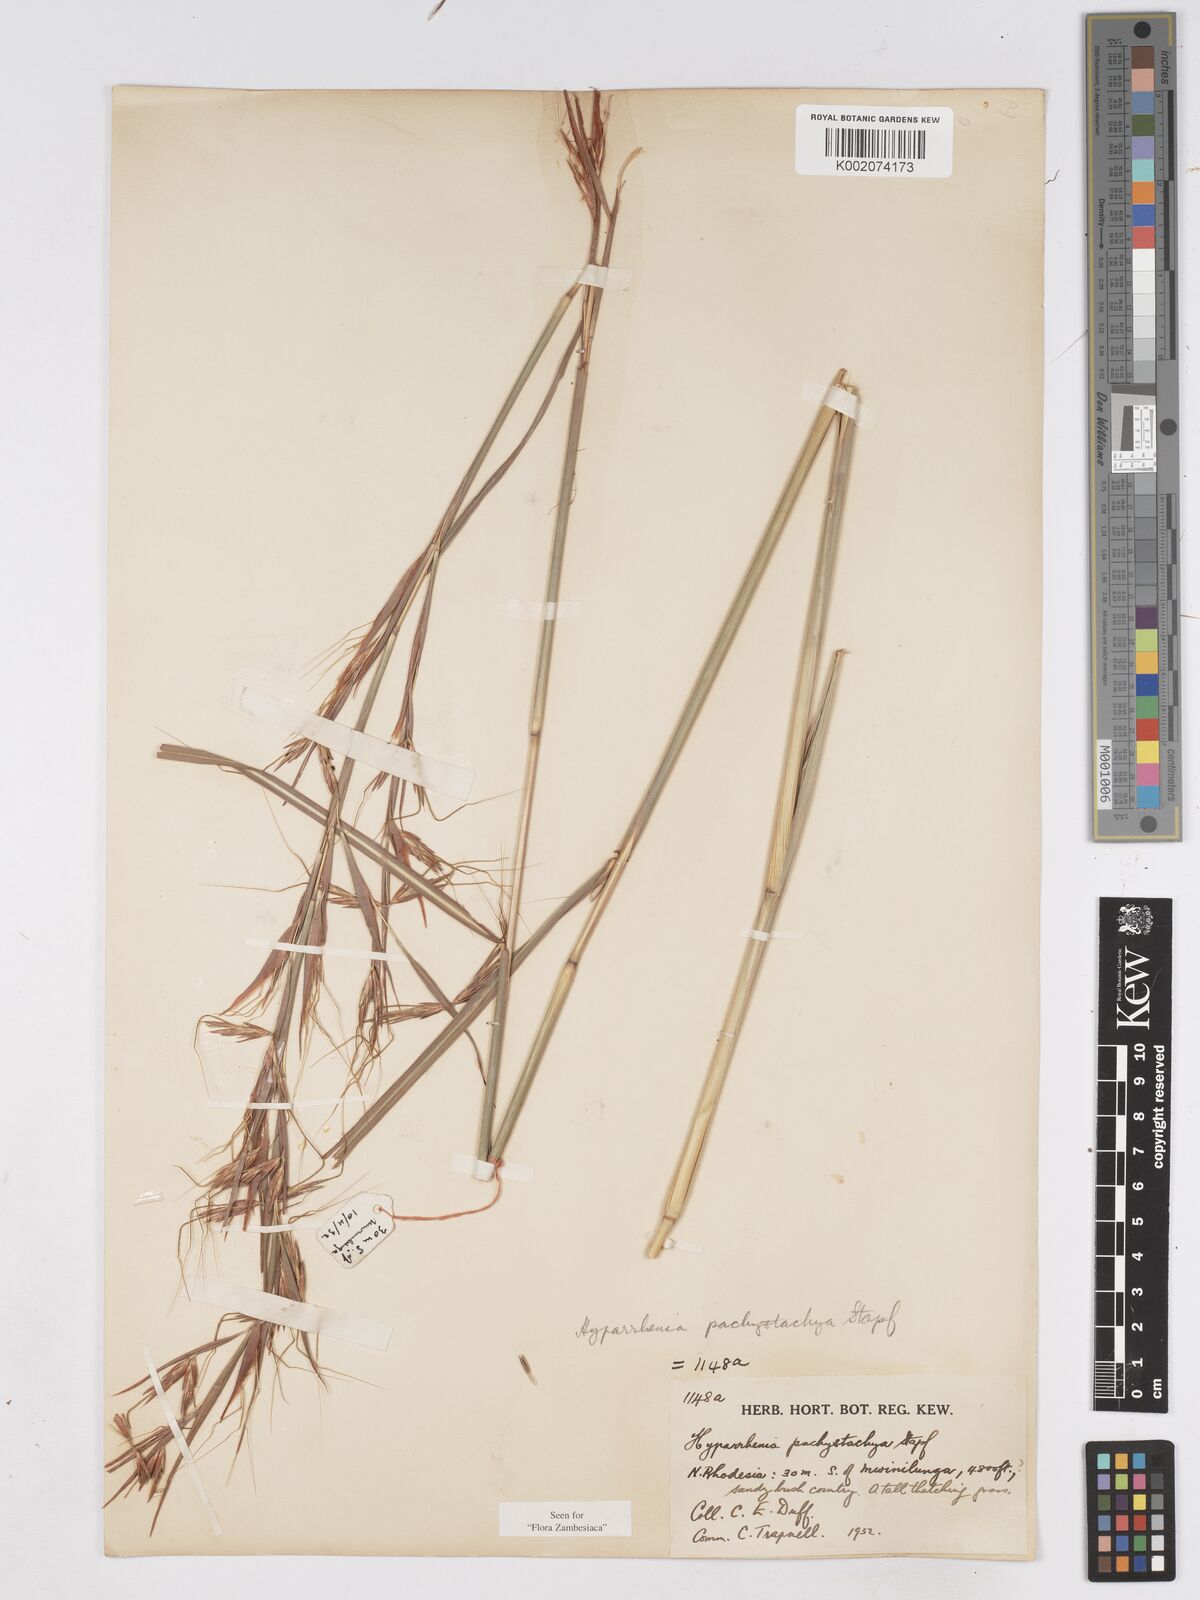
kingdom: Plantae
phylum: Tracheophyta
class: Liliopsida
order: Poales
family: Poaceae
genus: Hyparrhenia
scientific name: Hyparrhenia diplandra
